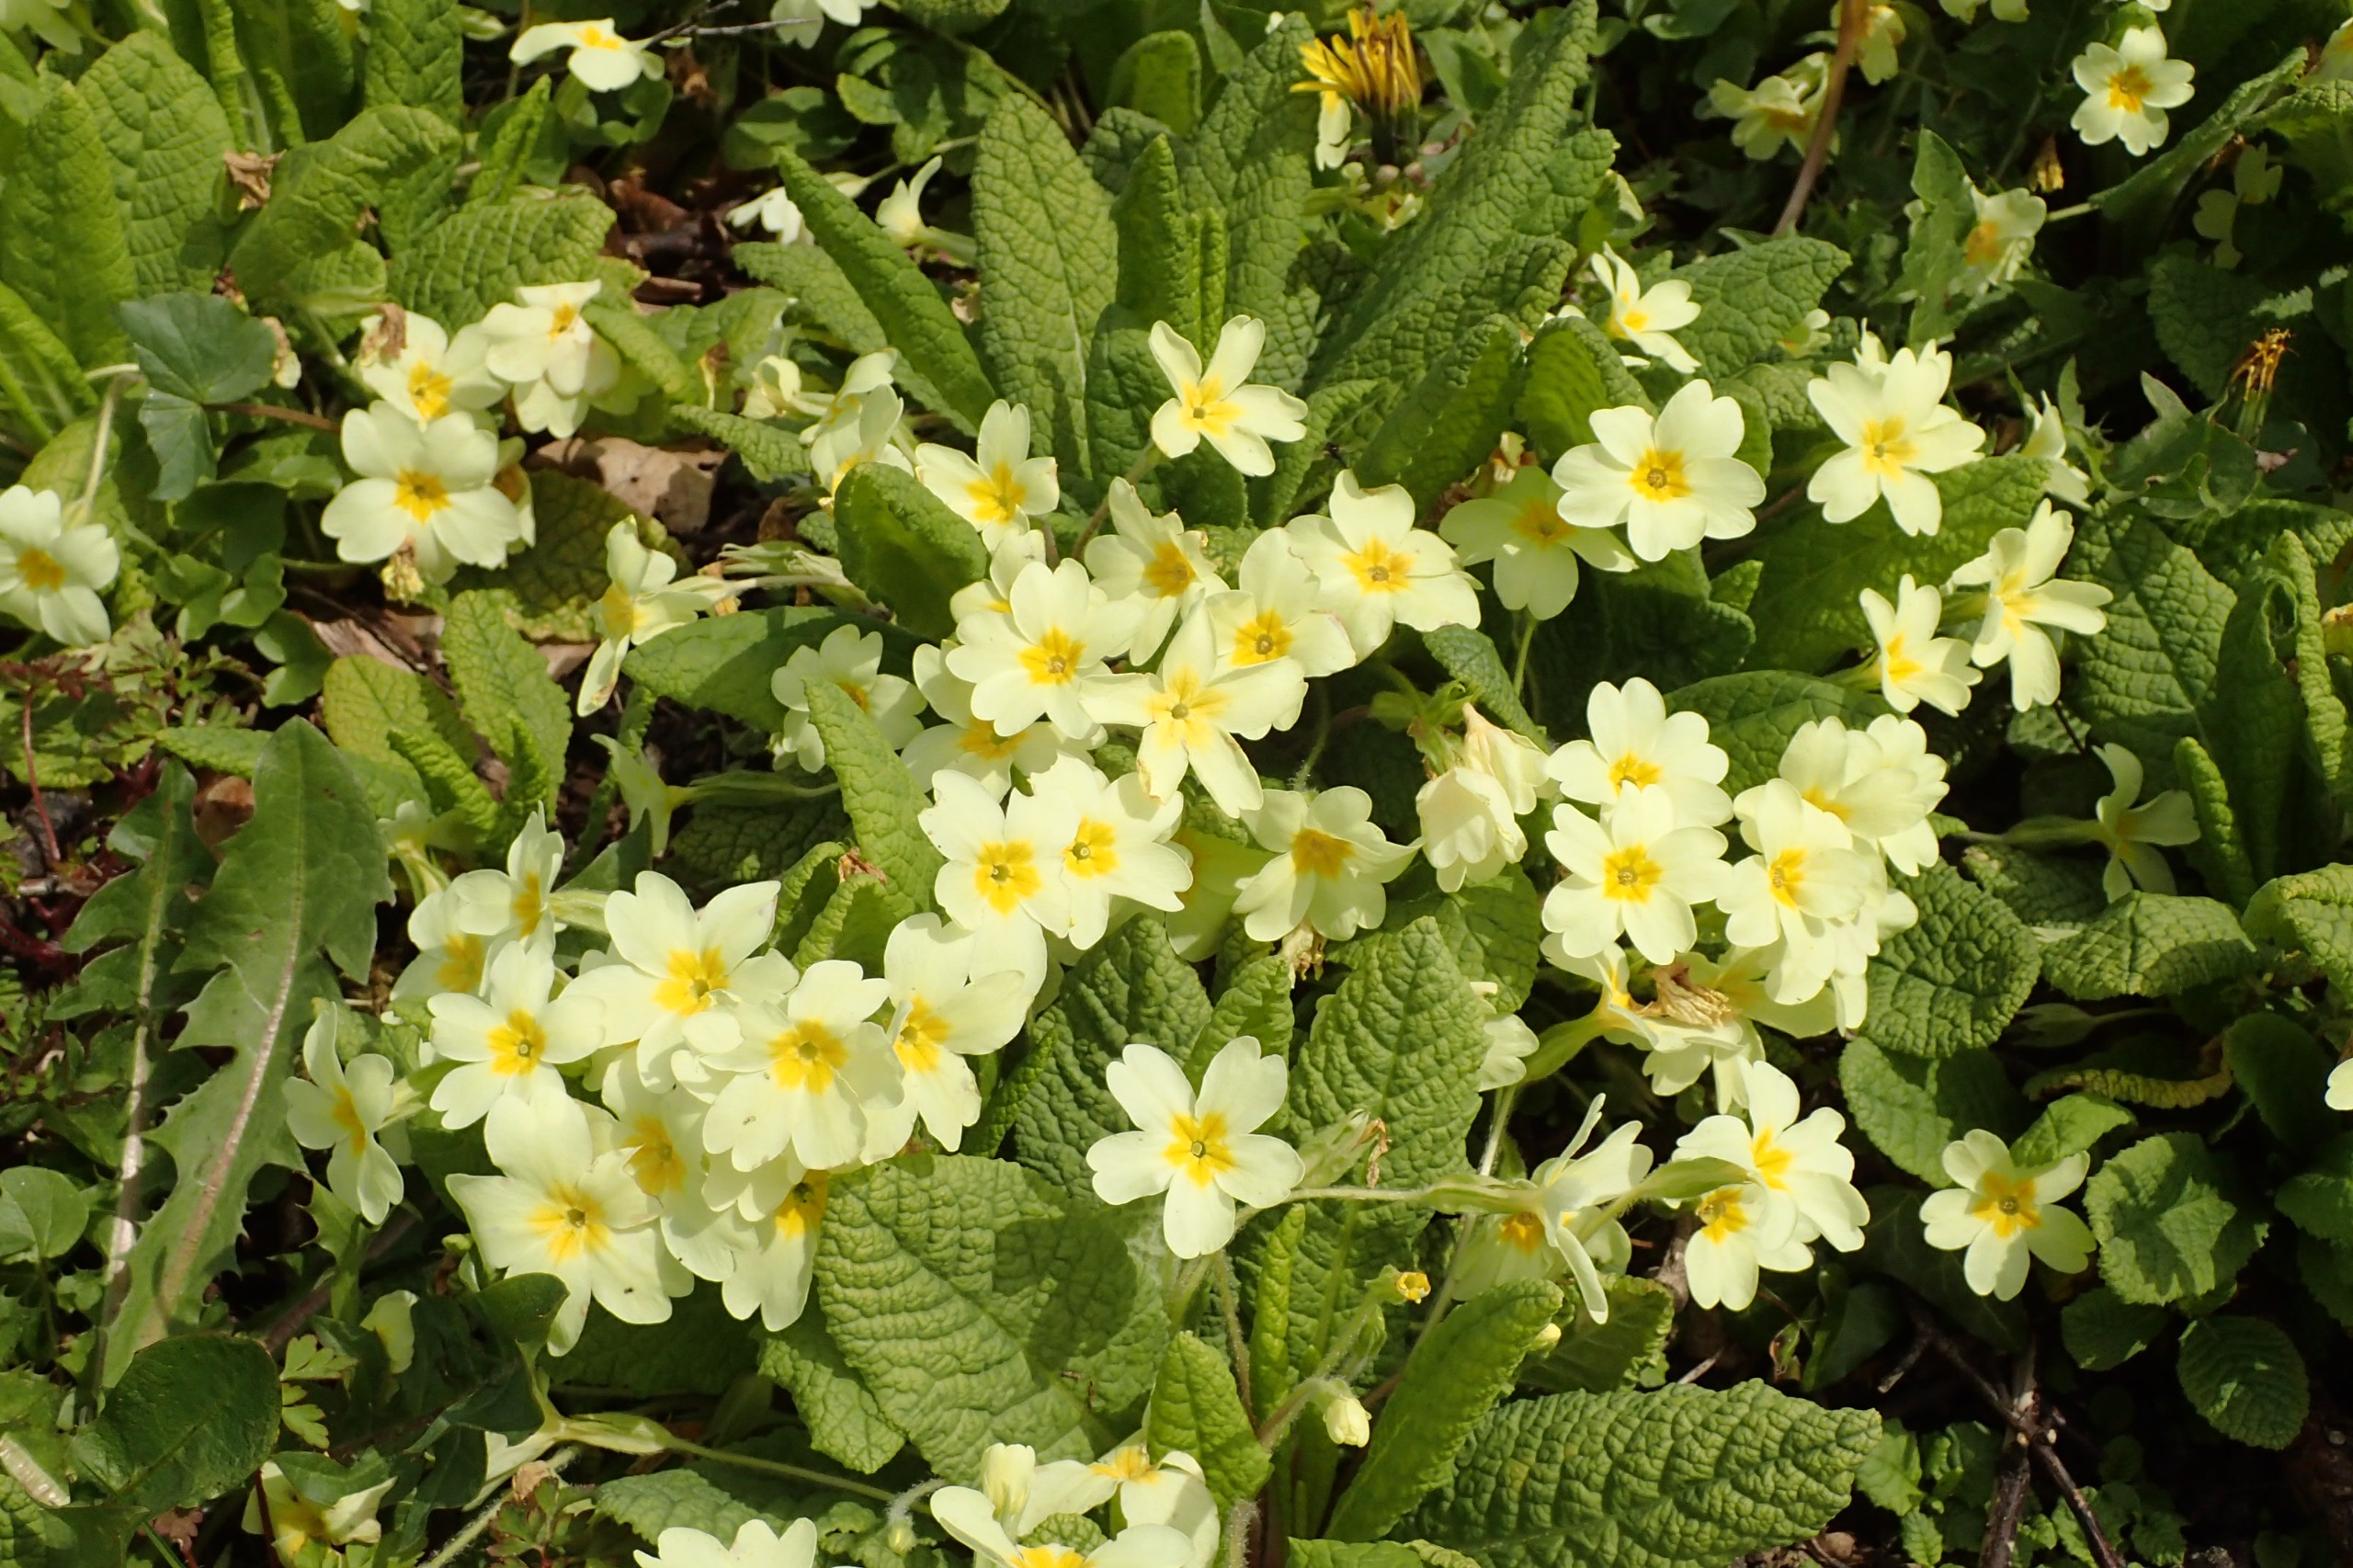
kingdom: Plantae
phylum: Tracheophyta
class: Magnoliopsida
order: Ericales
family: Primulaceae
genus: Primula
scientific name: Primula vulgaris
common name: Storblomstret kodriver
